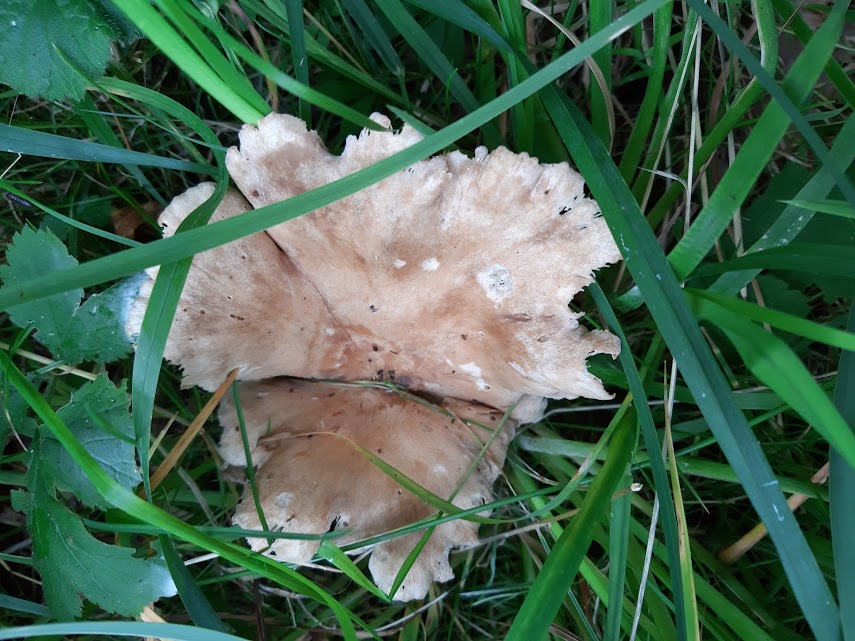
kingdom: Fungi
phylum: Basidiomycota
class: Agaricomycetes
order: Agaricales
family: Tricholomataceae
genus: Infundibulicybe
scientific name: Infundibulicybe
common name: tragthat
